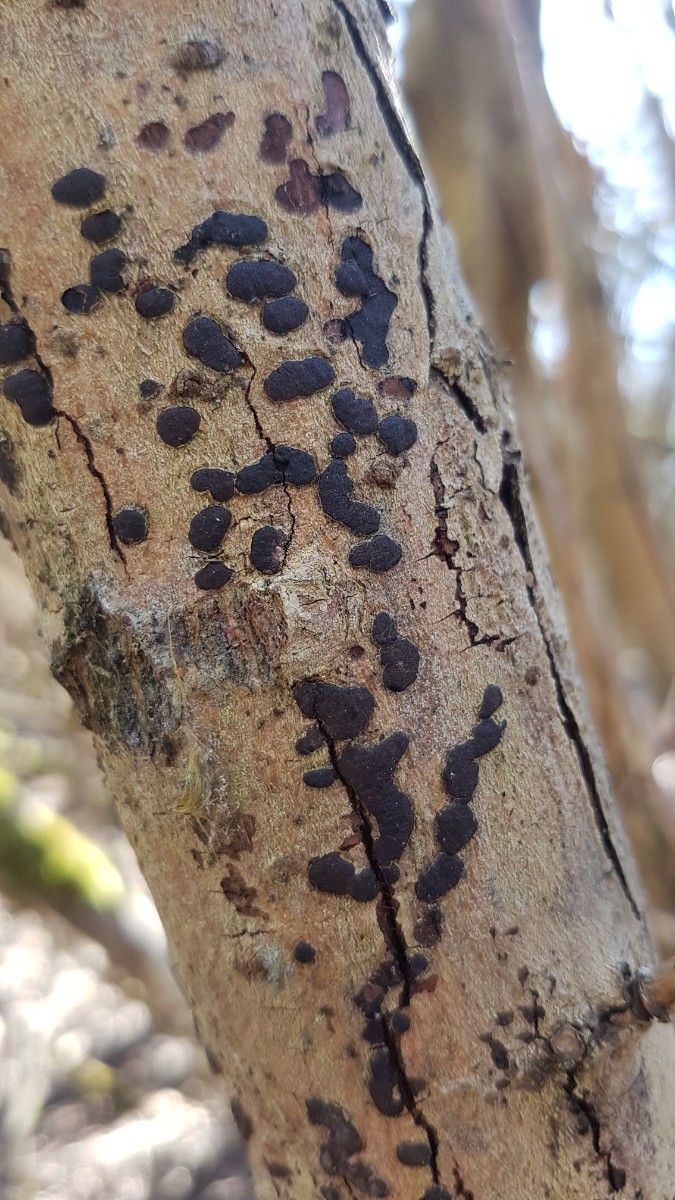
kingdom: Fungi
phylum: Ascomycota
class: Sordariomycetes
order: Xylariales
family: Diatrypaceae
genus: Diatrype
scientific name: Diatrype bullata
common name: pile-kulskorpe
